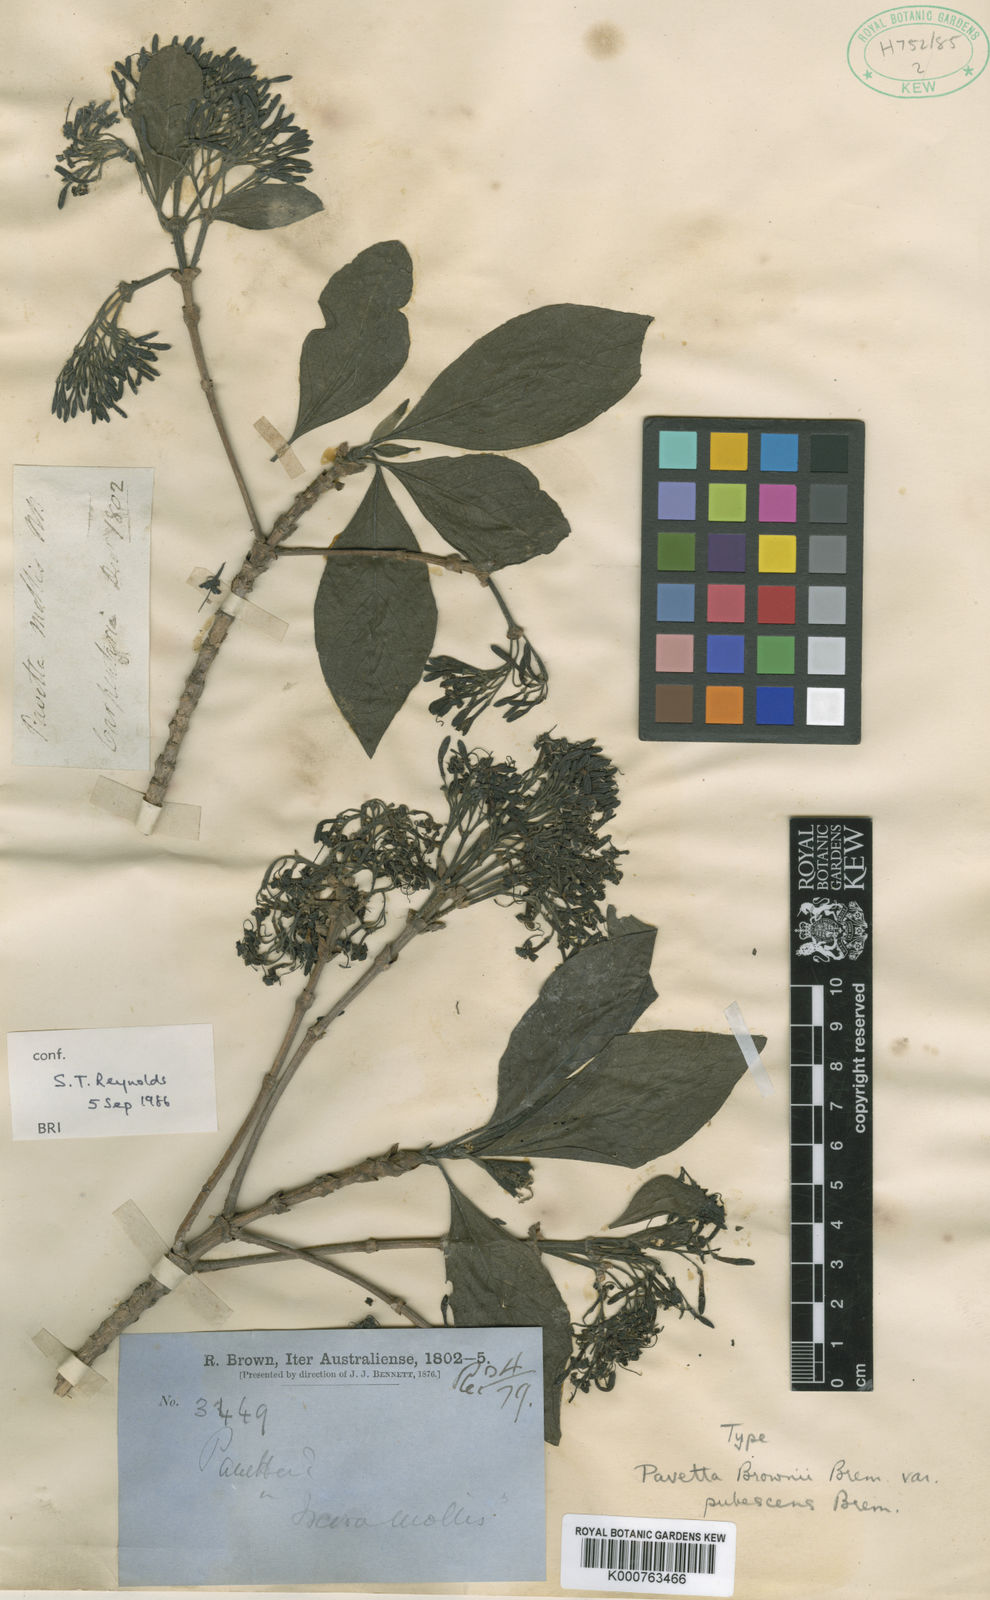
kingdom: Plantae
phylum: Tracheophyta
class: Magnoliopsida
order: Gentianales
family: Rubiaceae
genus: Pavetta
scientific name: Pavetta brownii
